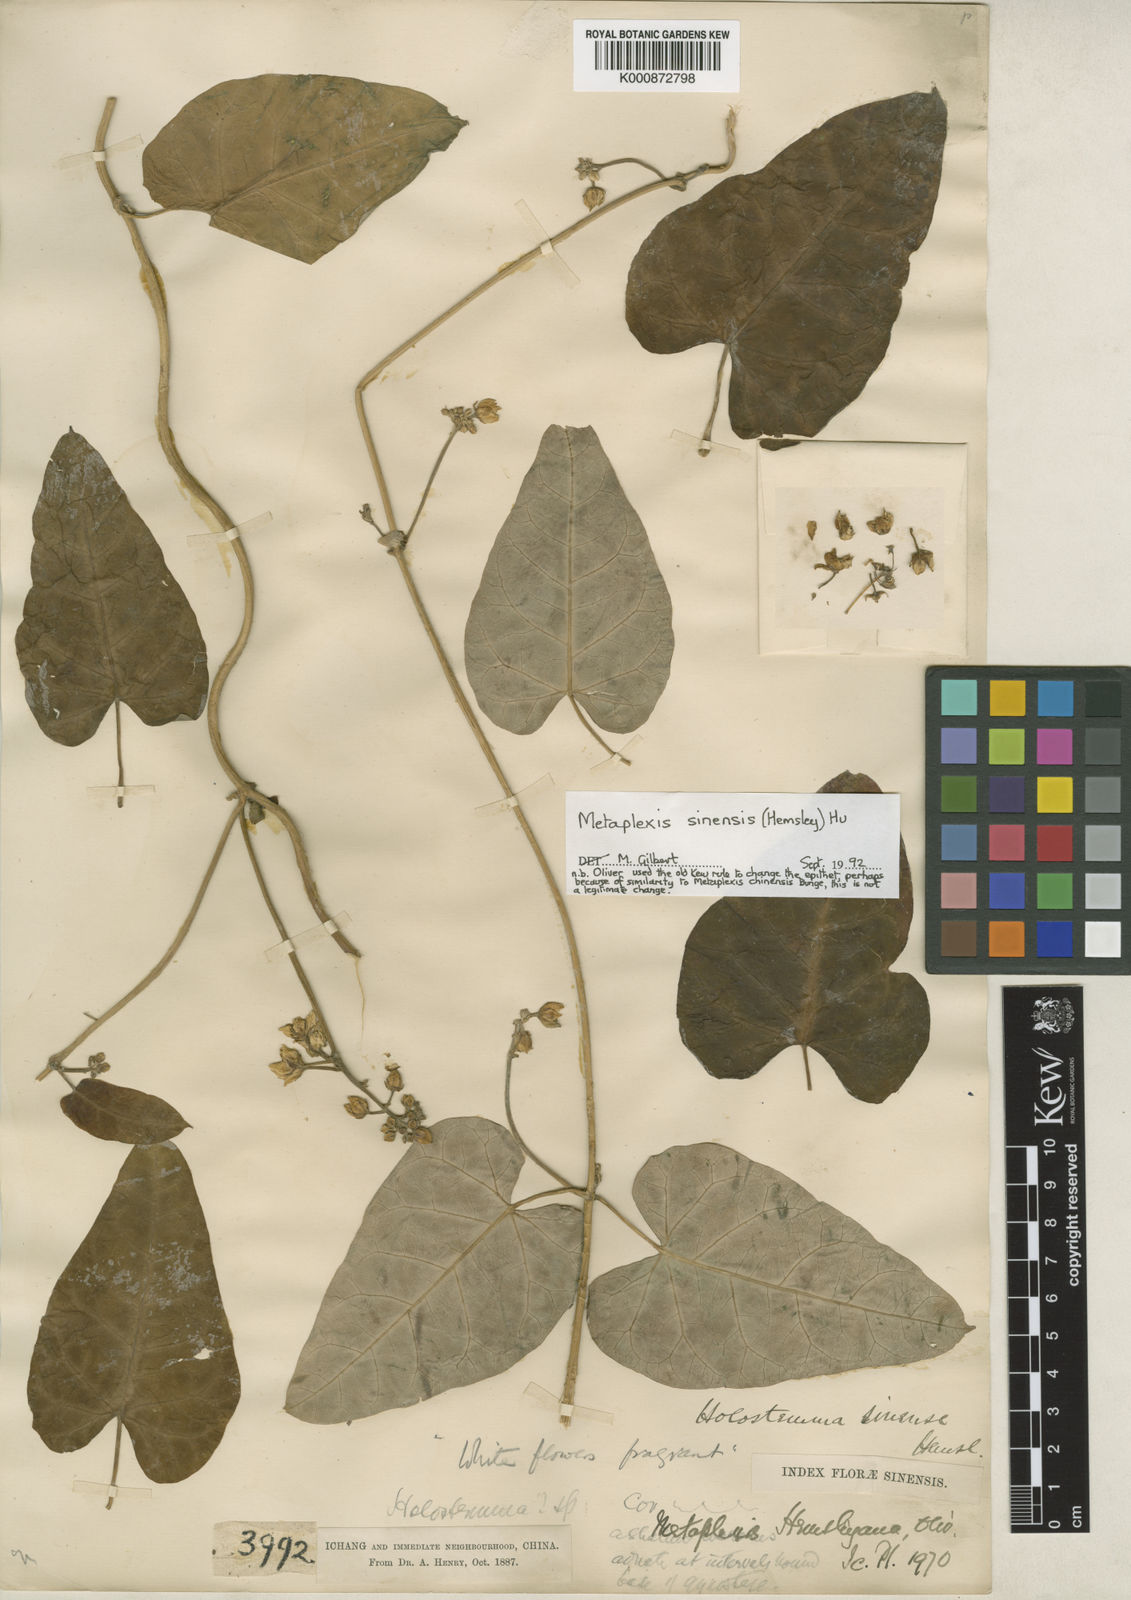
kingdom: Plantae
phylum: Tracheophyta
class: Magnoliopsida
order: Gentianales
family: Apocynaceae
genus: Cynanchum
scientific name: Cynanchum hemsleyanum
